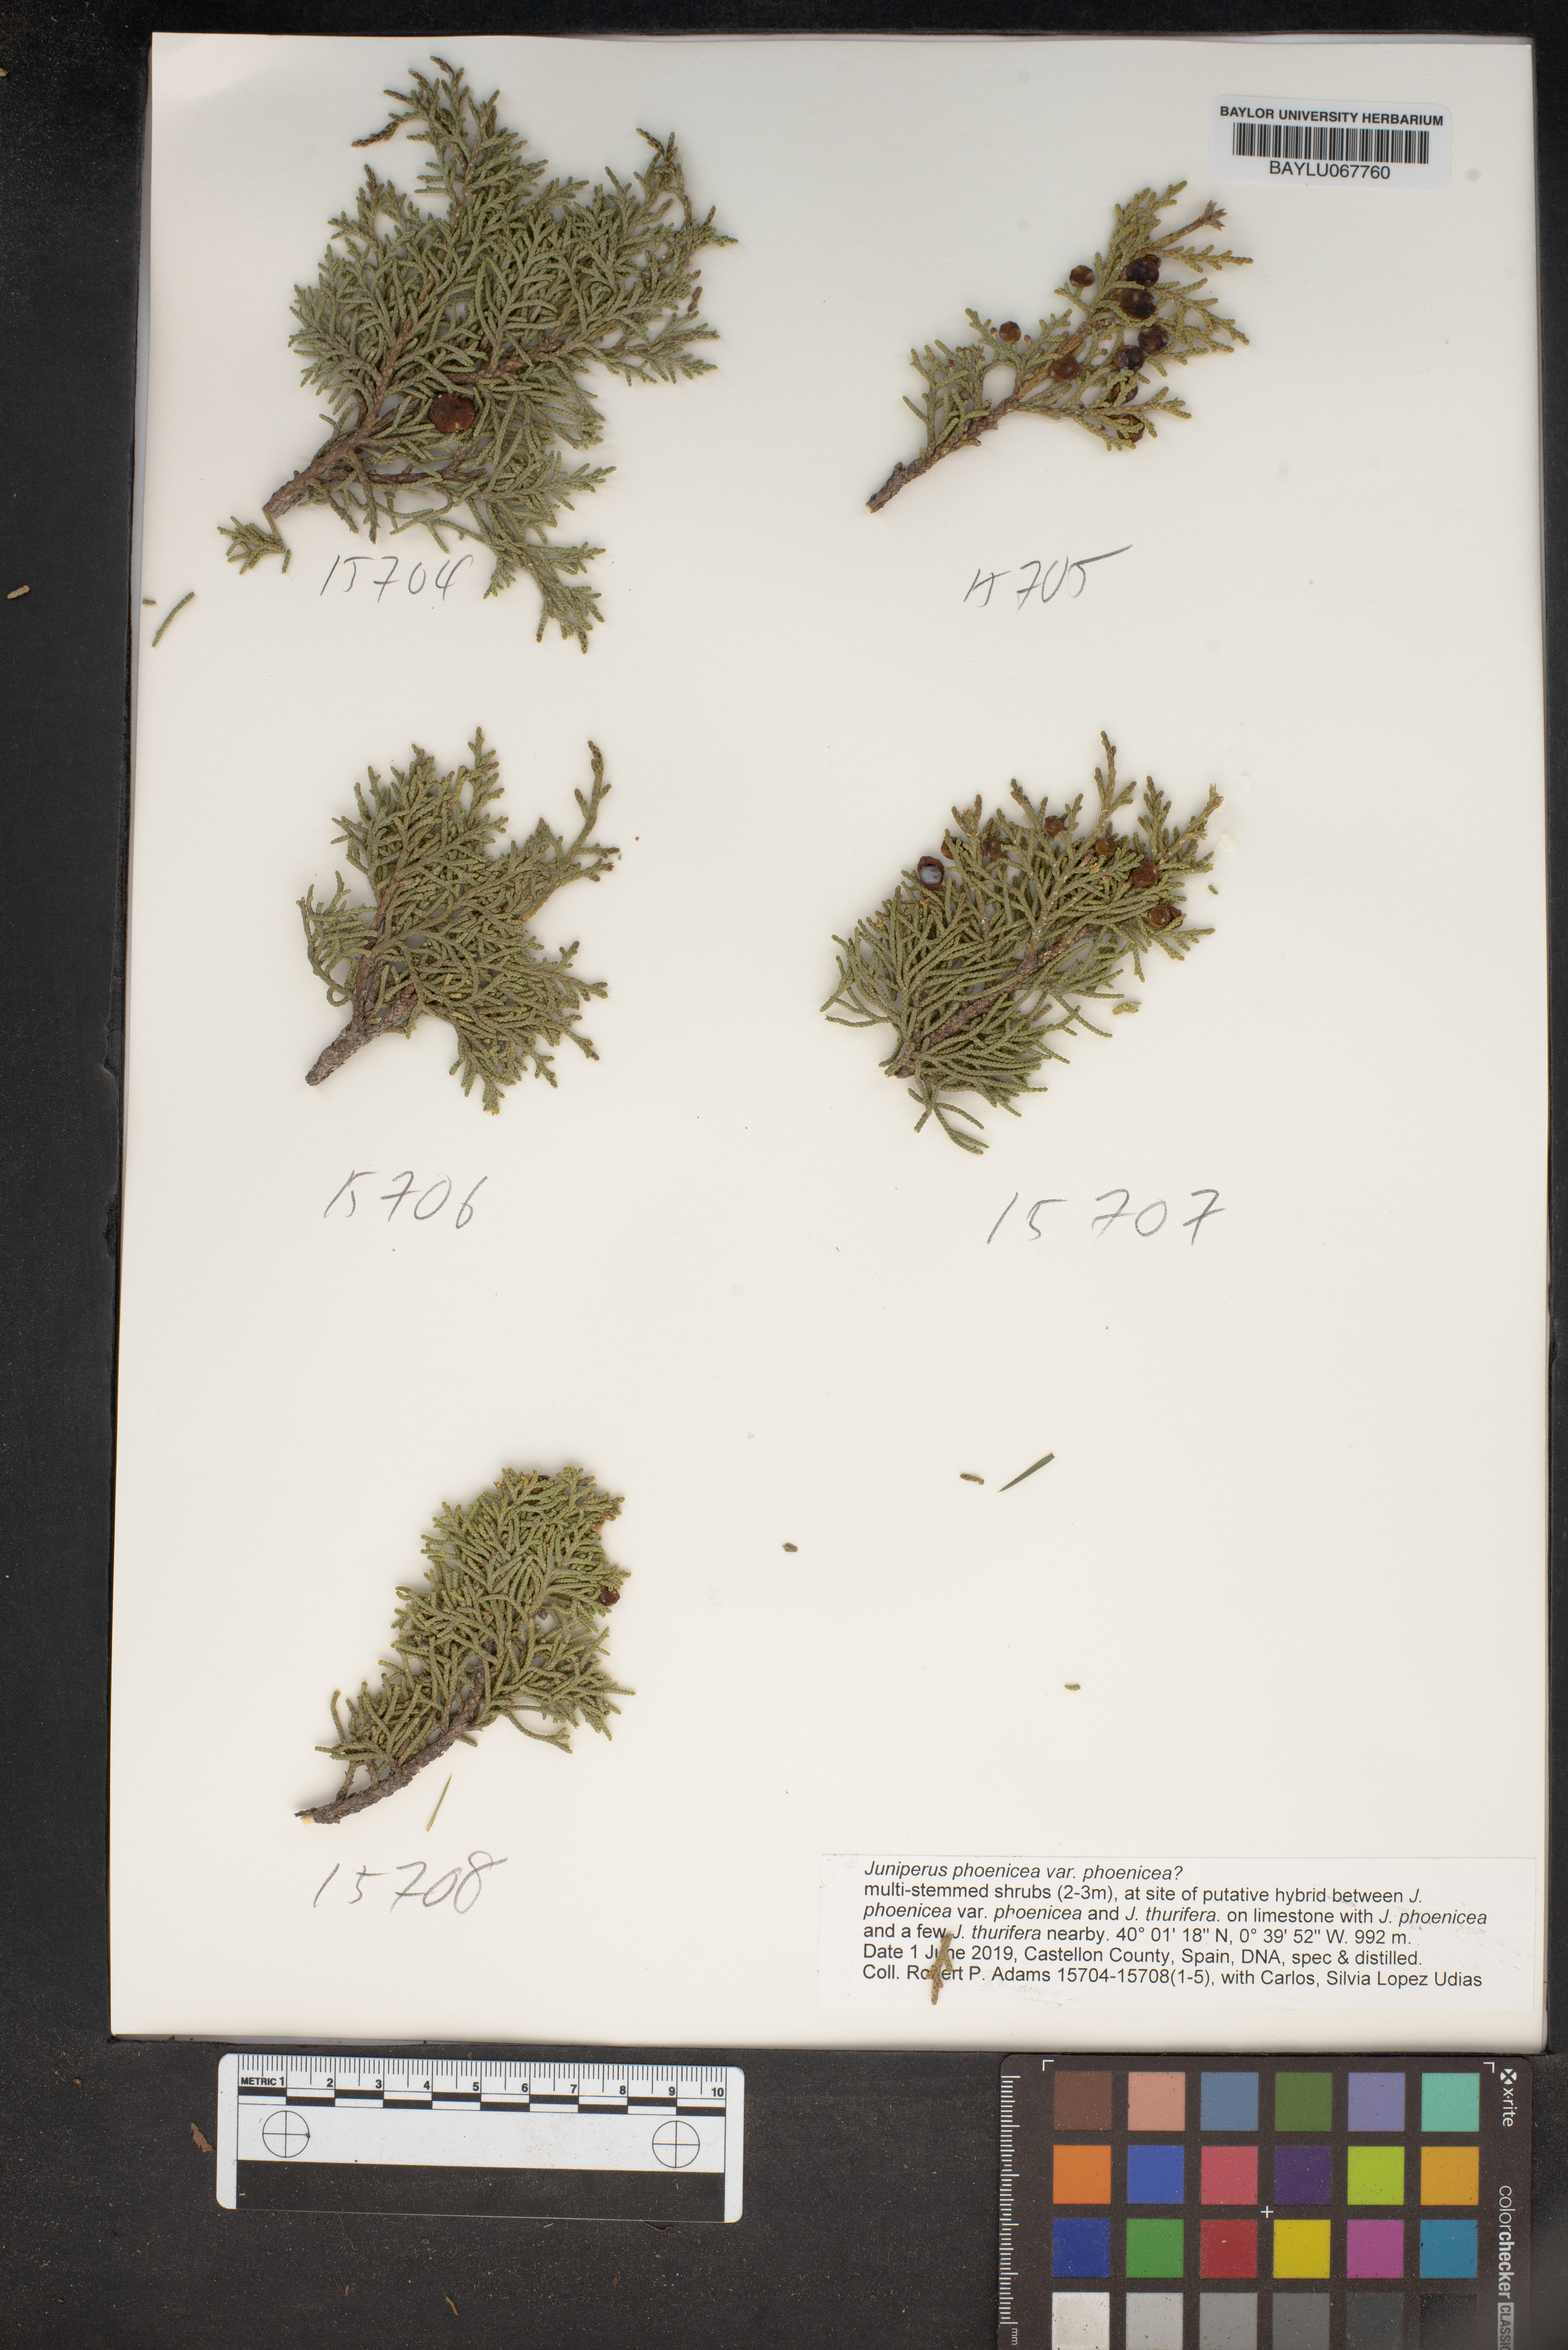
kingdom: Plantae
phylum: Tracheophyta
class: Pinopsida
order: Pinales
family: Cupressaceae
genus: Juniperus
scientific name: Juniperus phoenicea
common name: Phoenician juniper
